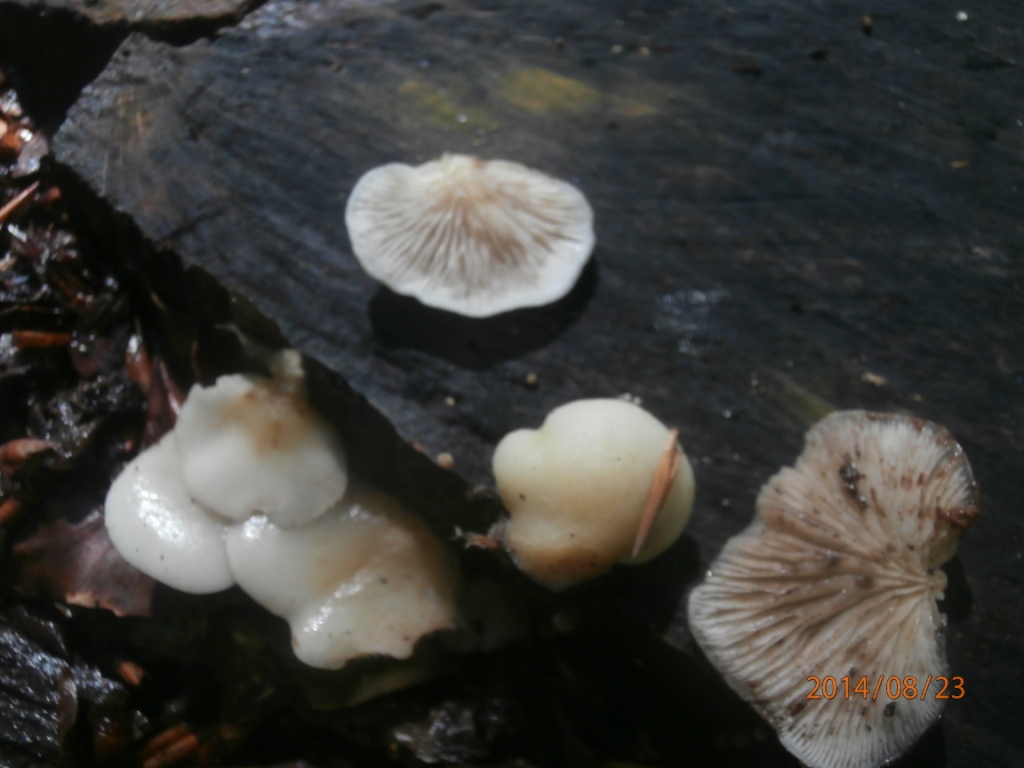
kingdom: Fungi
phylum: Basidiomycota
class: Agaricomycetes
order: Agaricales
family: Crepidotaceae
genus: Crepidotus
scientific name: Crepidotus mollis
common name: blød muslingesvamp
